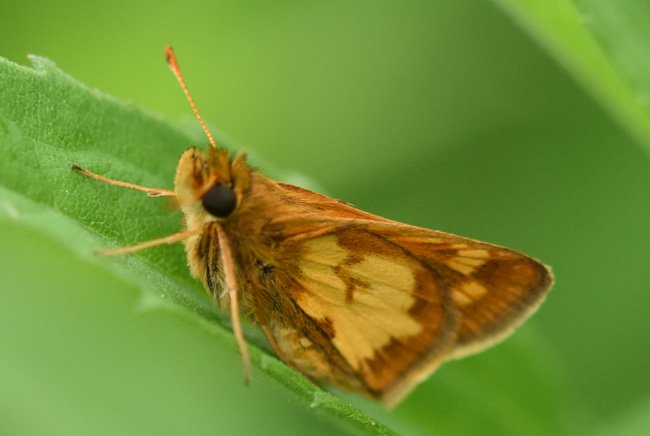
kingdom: Animalia
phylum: Arthropoda
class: Insecta
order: Lepidoptera
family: Hesperiidae
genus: Polites
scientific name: Polites coras
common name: Peck's Skipper
